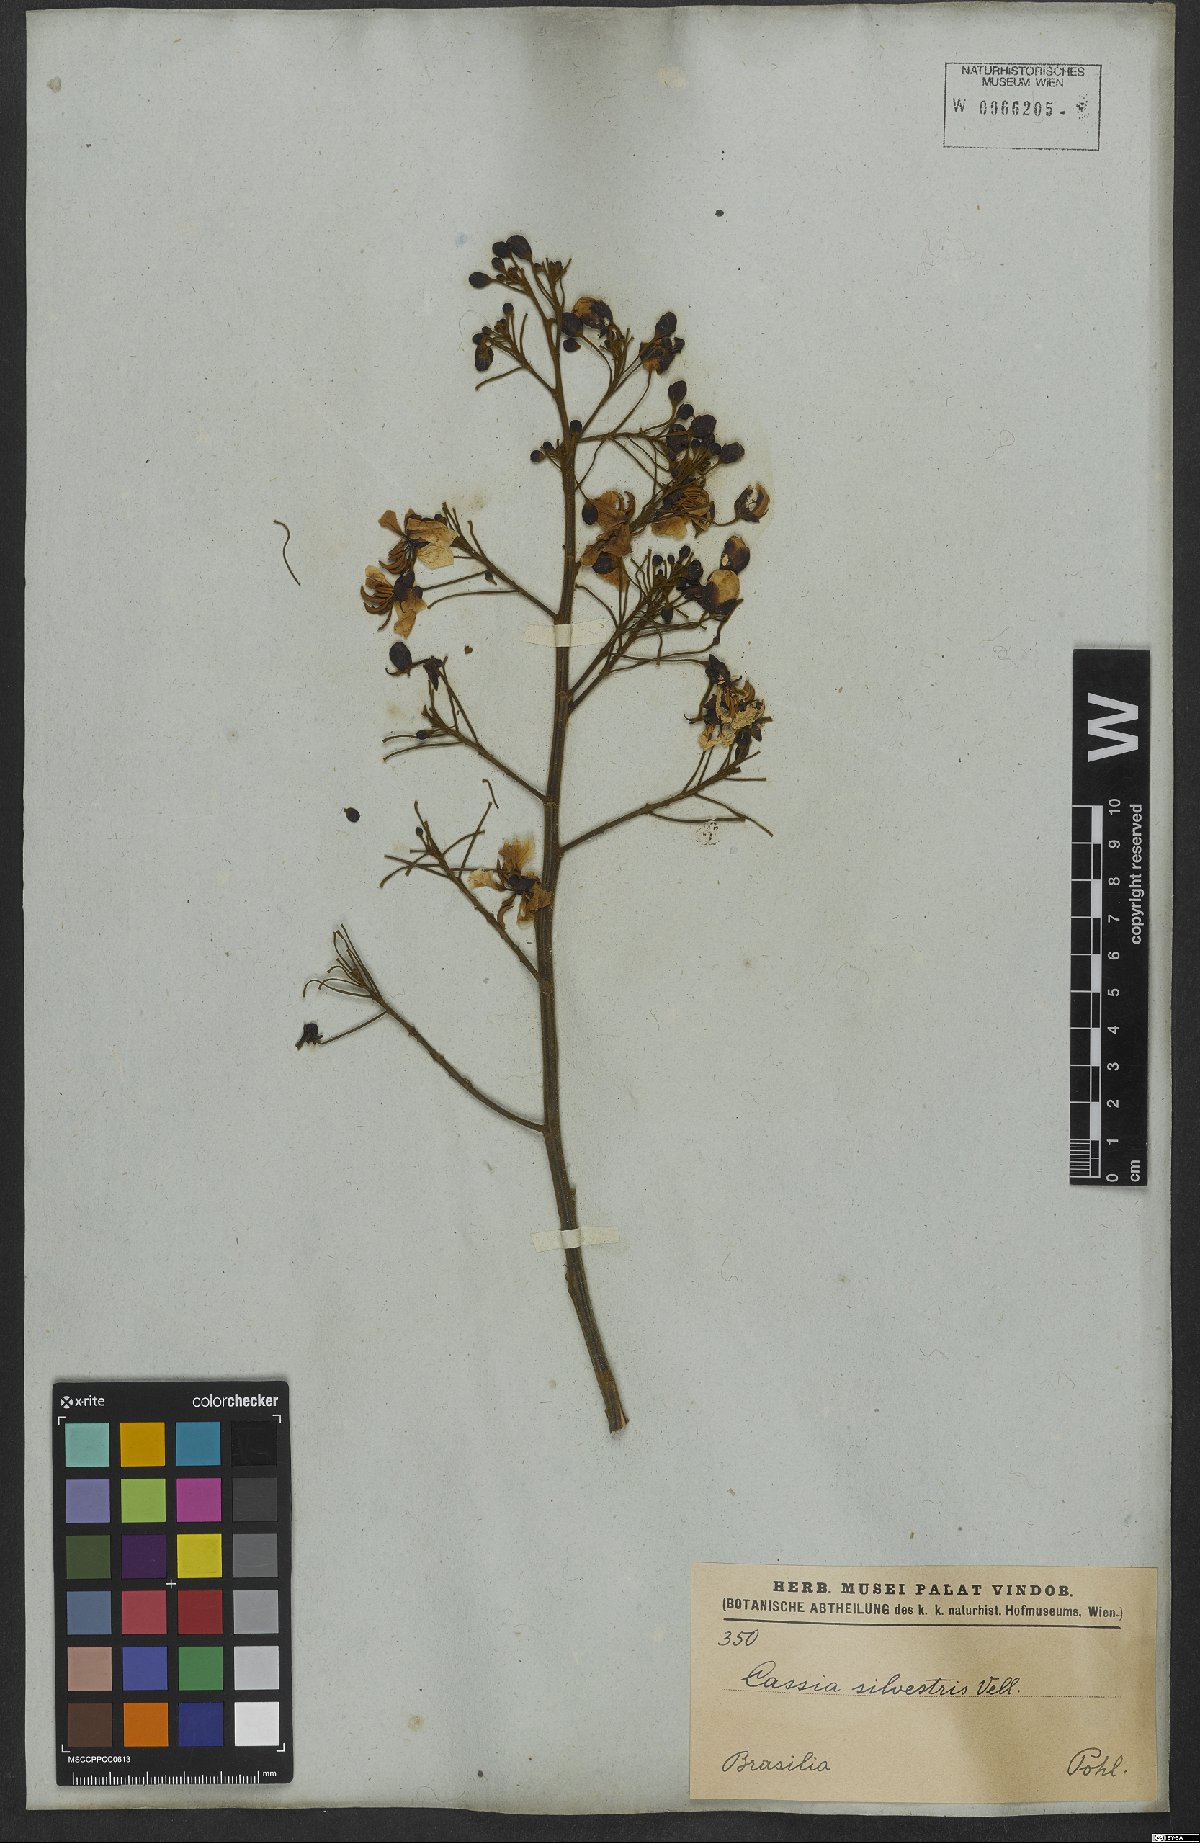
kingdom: Plantae
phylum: Tracheophyta
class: Magnoliopsida
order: Fabales
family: Fabaceae
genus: Senna
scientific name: Senna silvestris
